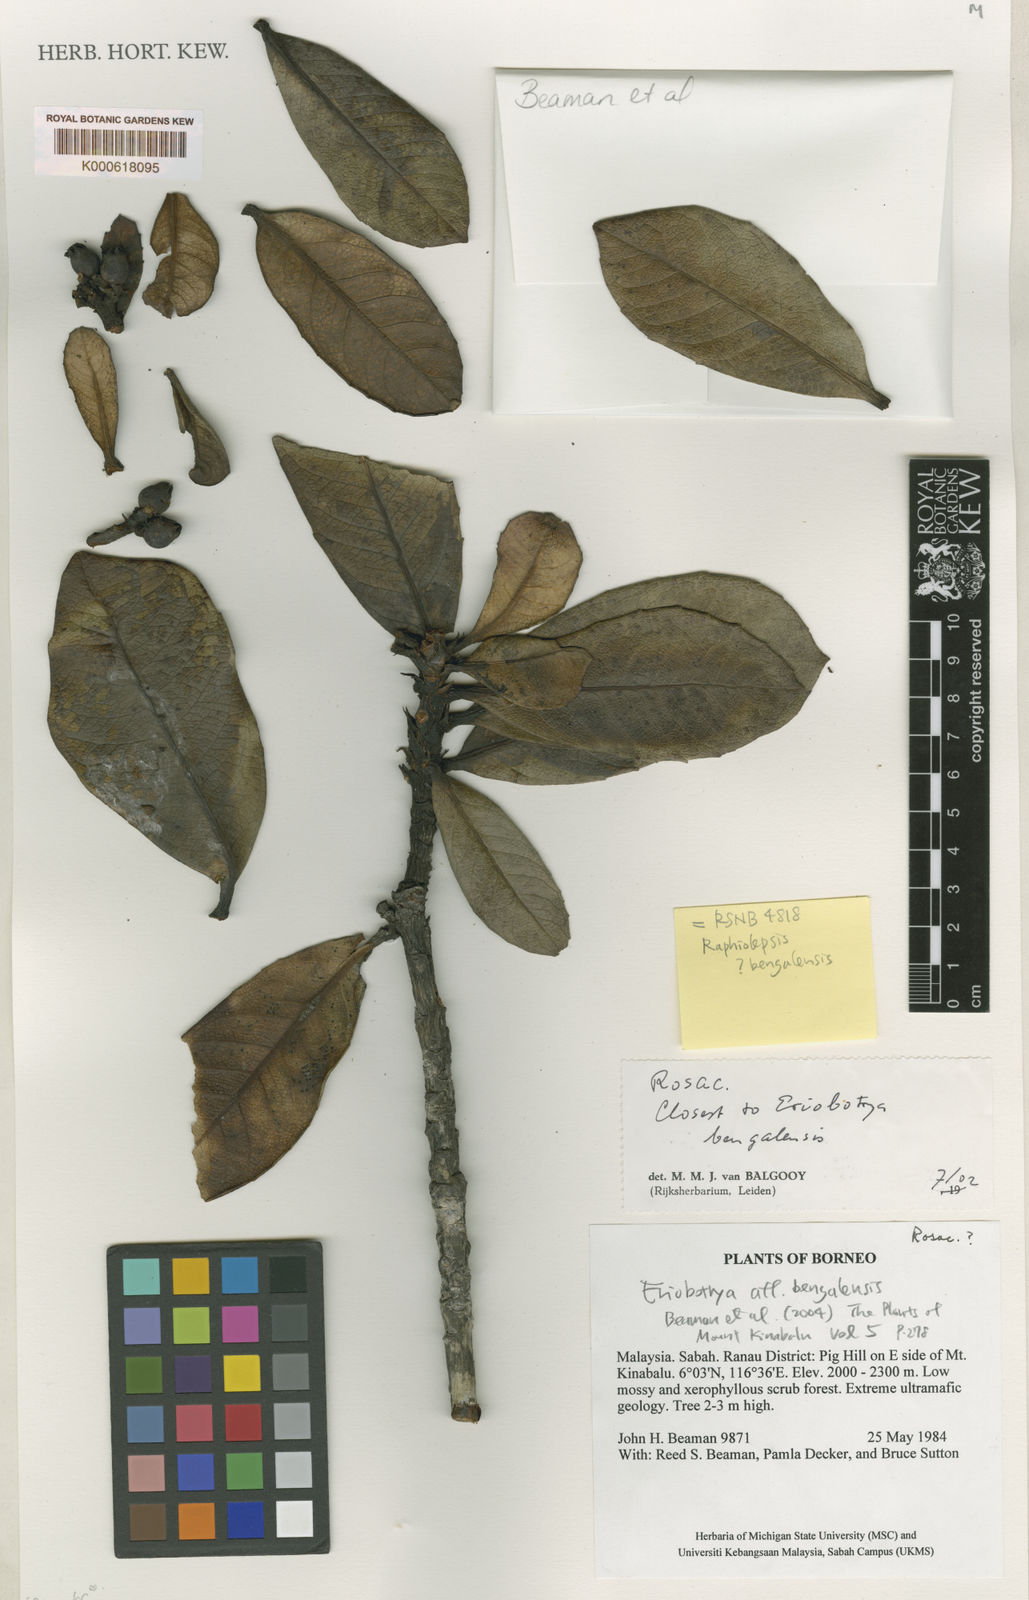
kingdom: Plantae
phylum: Tracheophyta
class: Magnoliopsida
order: Rosales
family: Rosaceae
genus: Rhaphiolepis
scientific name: Rhaphiolepis
